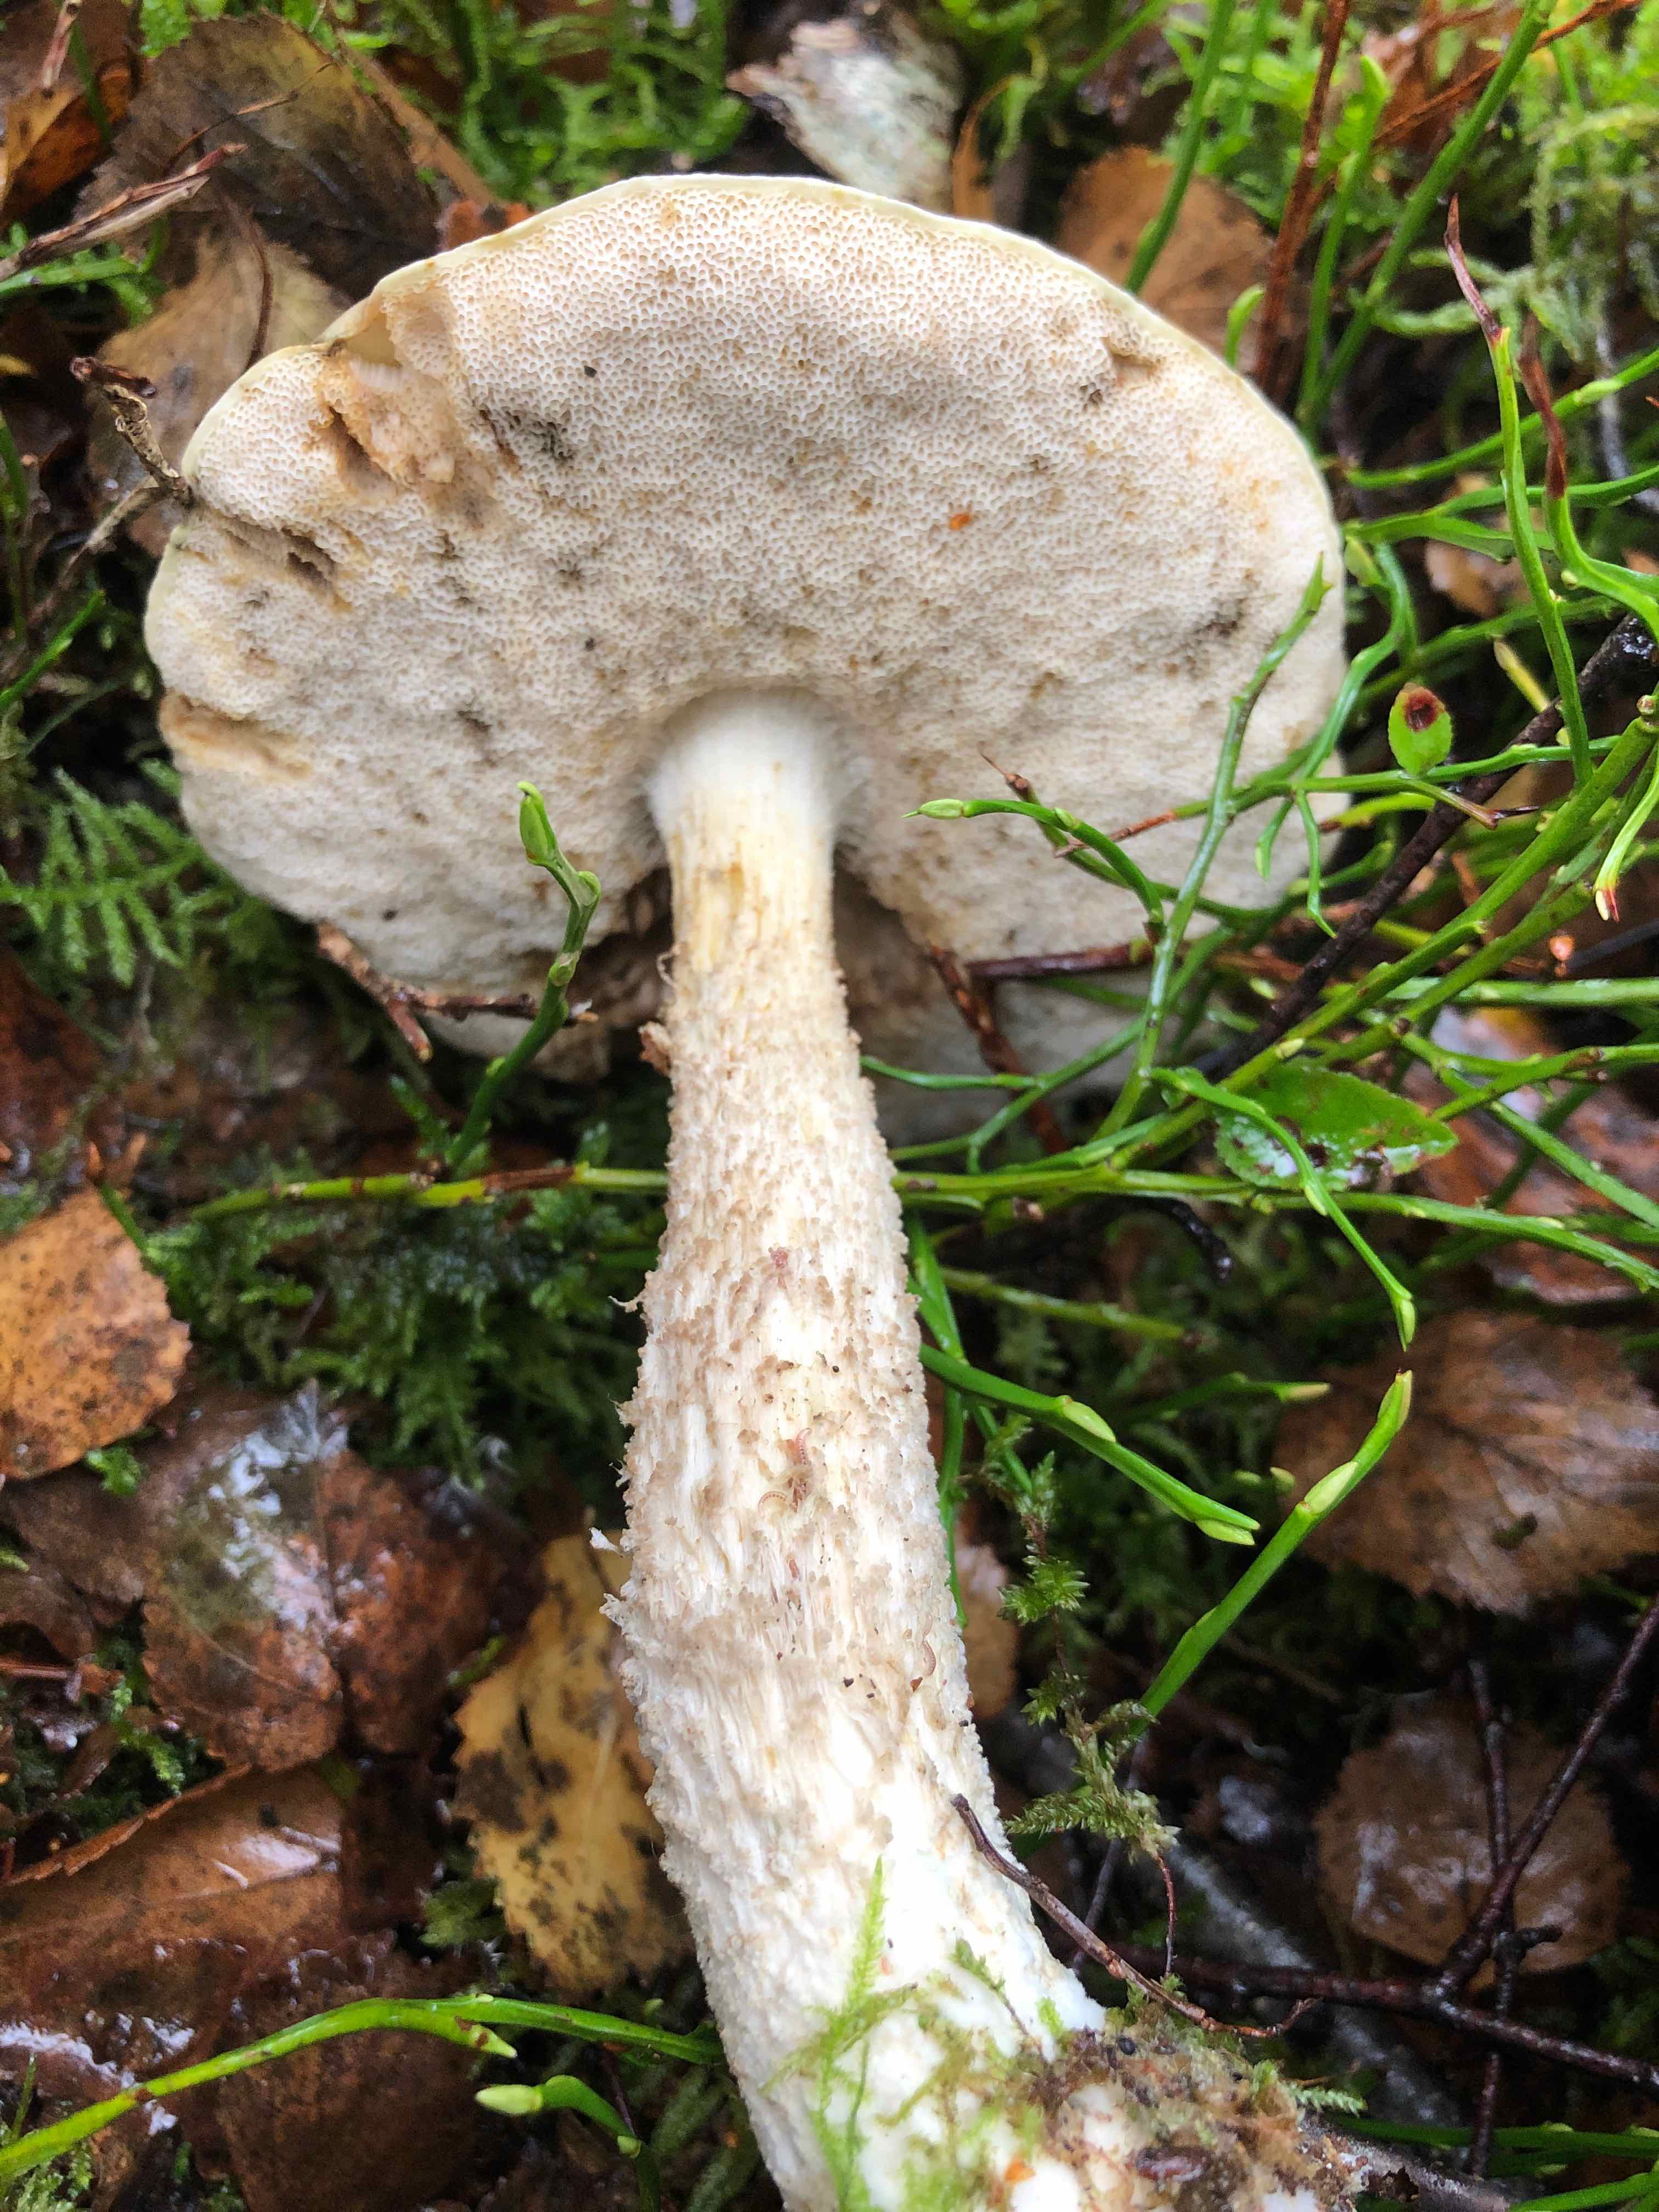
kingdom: Fungi
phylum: Basidiomycota
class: Agaricomycetes
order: Boletales
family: Boletaceae
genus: Leccinum
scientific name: Leccinum scabrum
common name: hvid skælrørhat
